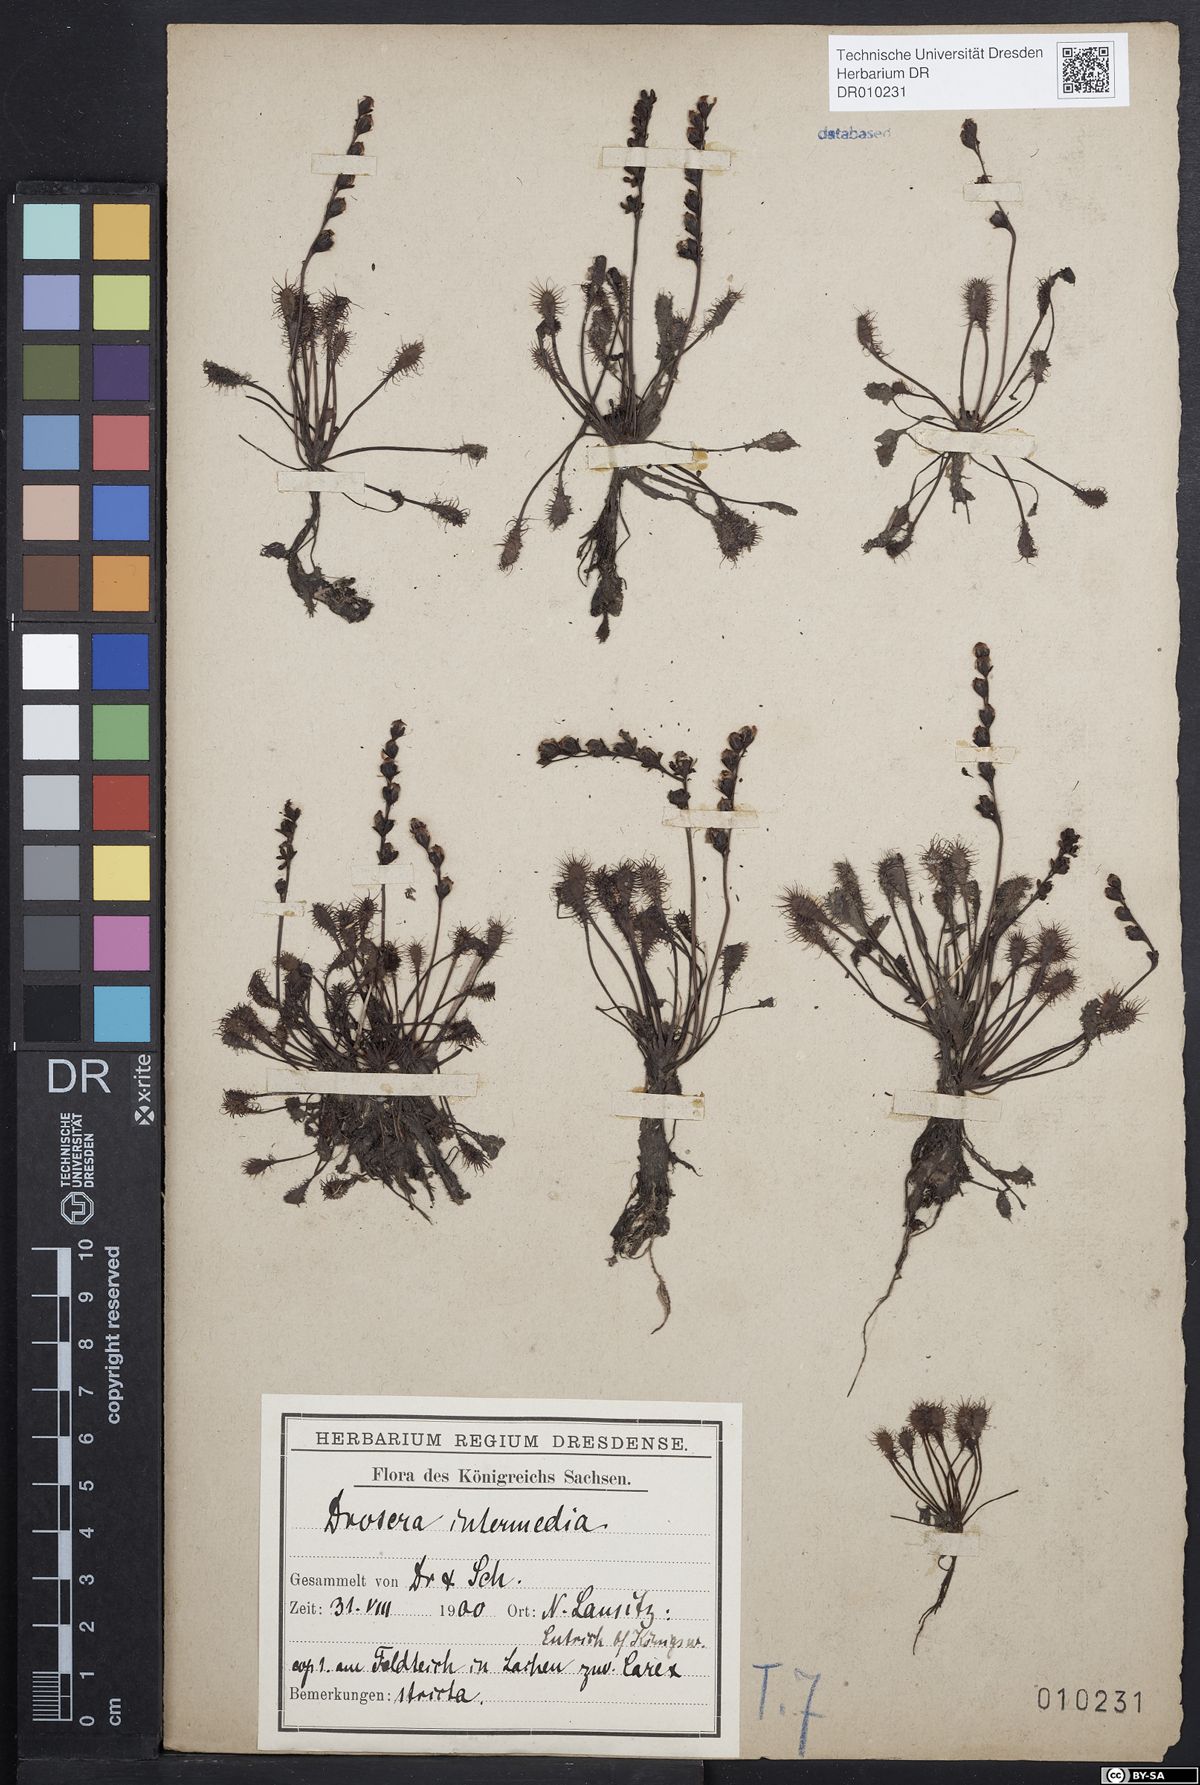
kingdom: Plantae
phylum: Tracheophyta
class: Magnoliopsida
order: Caryophyllales
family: Droseraceae
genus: Drosera
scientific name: Drosera intermedia
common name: Oblong-leaved sundew
